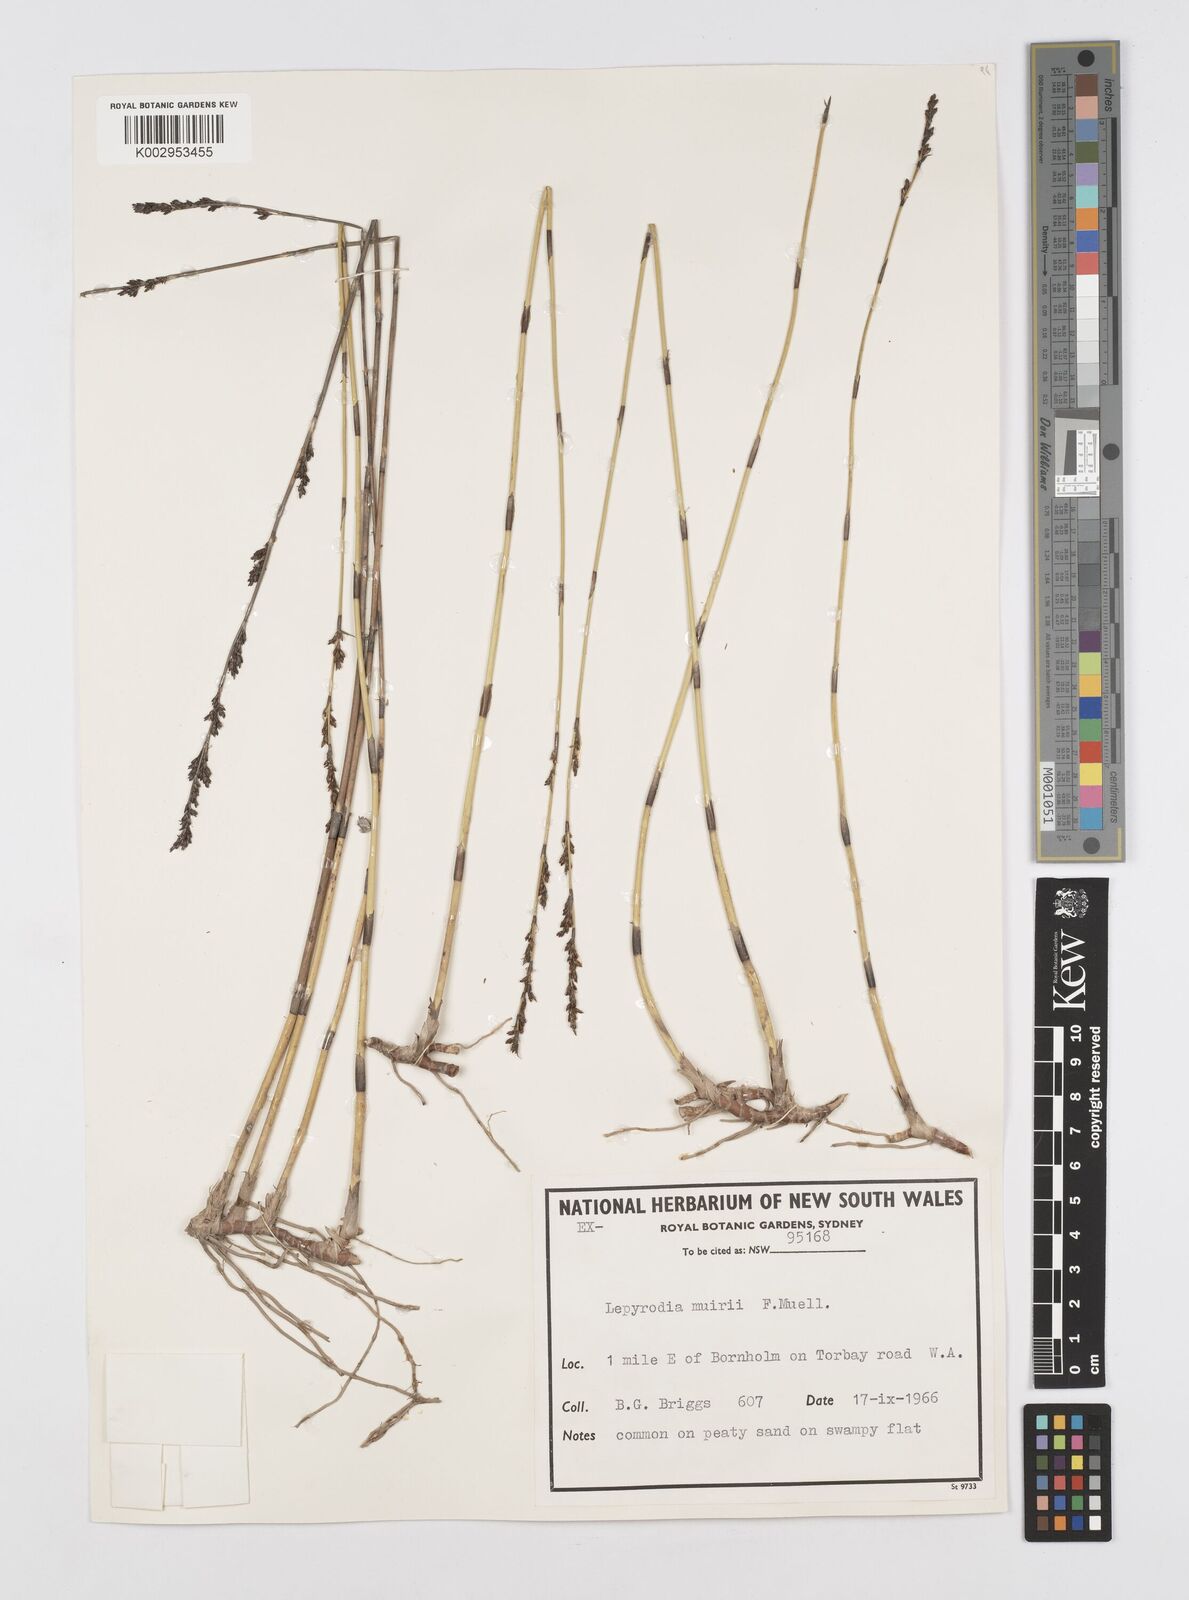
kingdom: Plantae
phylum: Tracheophyta
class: Liliopsida
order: Poales
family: Restionaceae
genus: Lepyrodia
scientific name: Lepyrodia muirii
